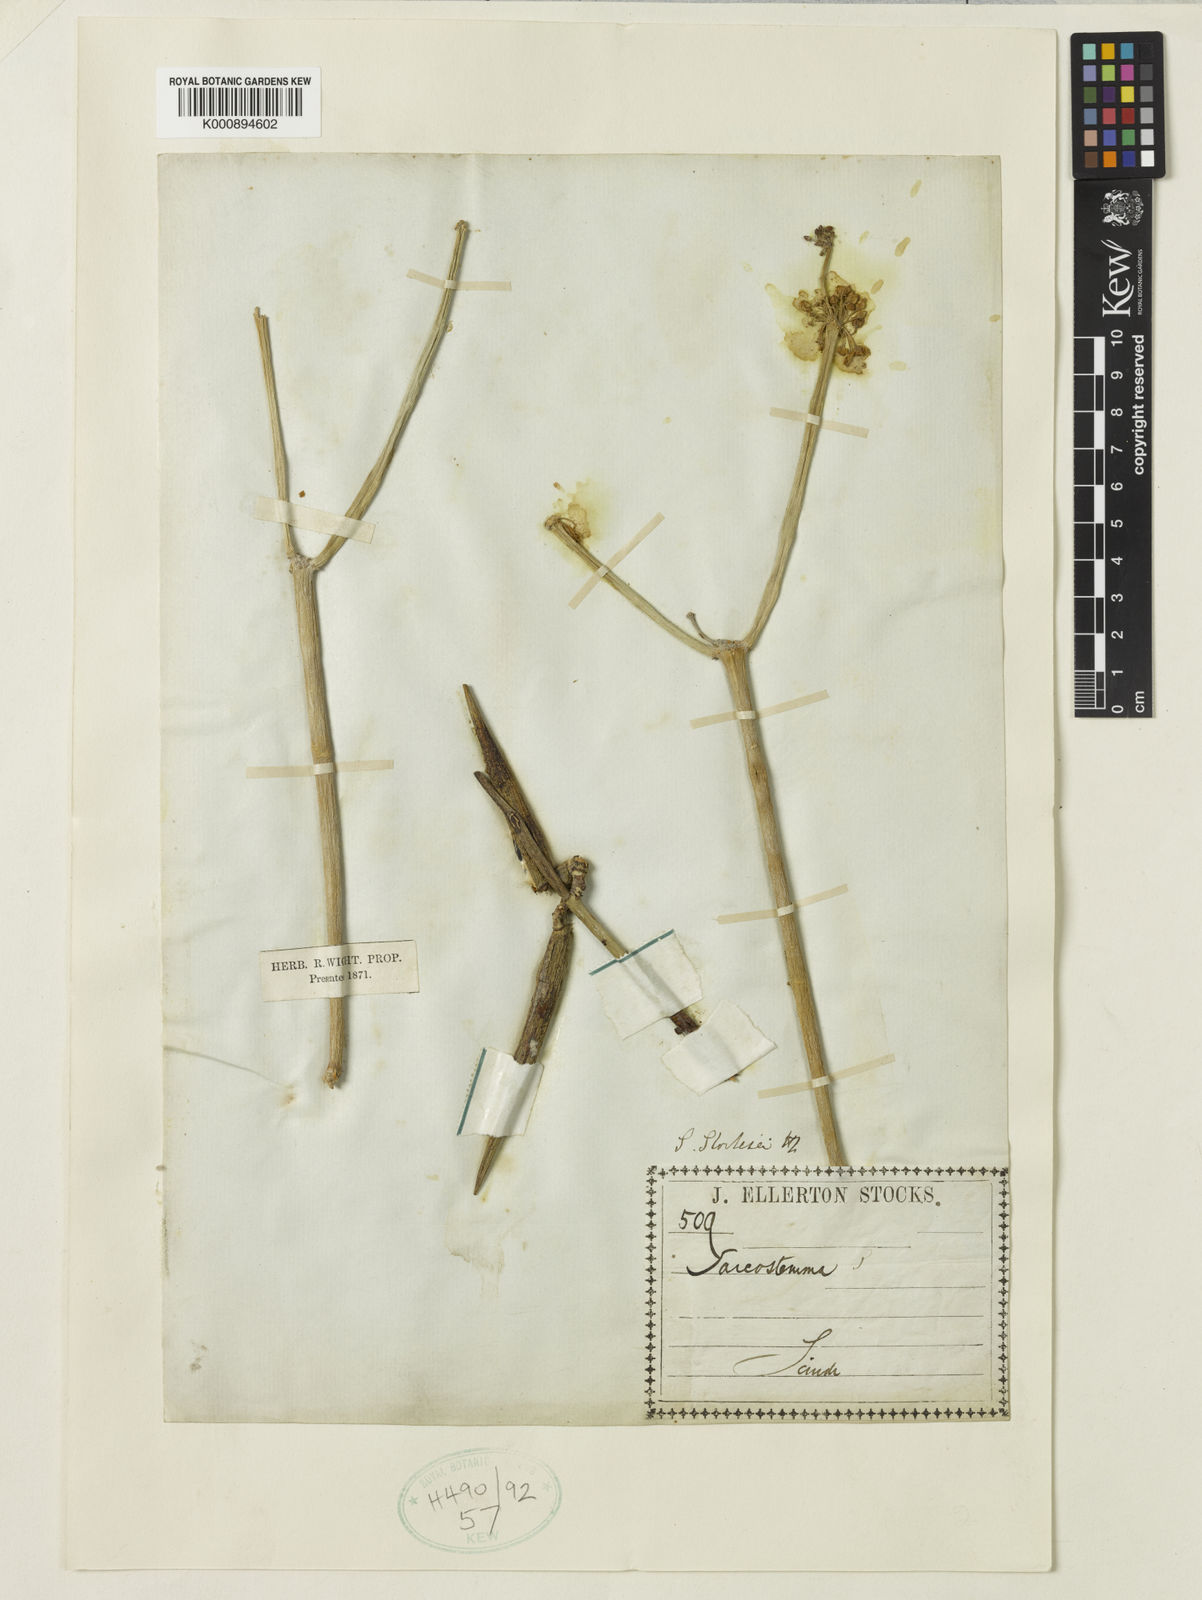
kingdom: Plantae
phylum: Tracheophyta
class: Magnoliopsida
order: Gentianales
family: Apocynaceae
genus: Cynanchum
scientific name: Cynanchum viminale
